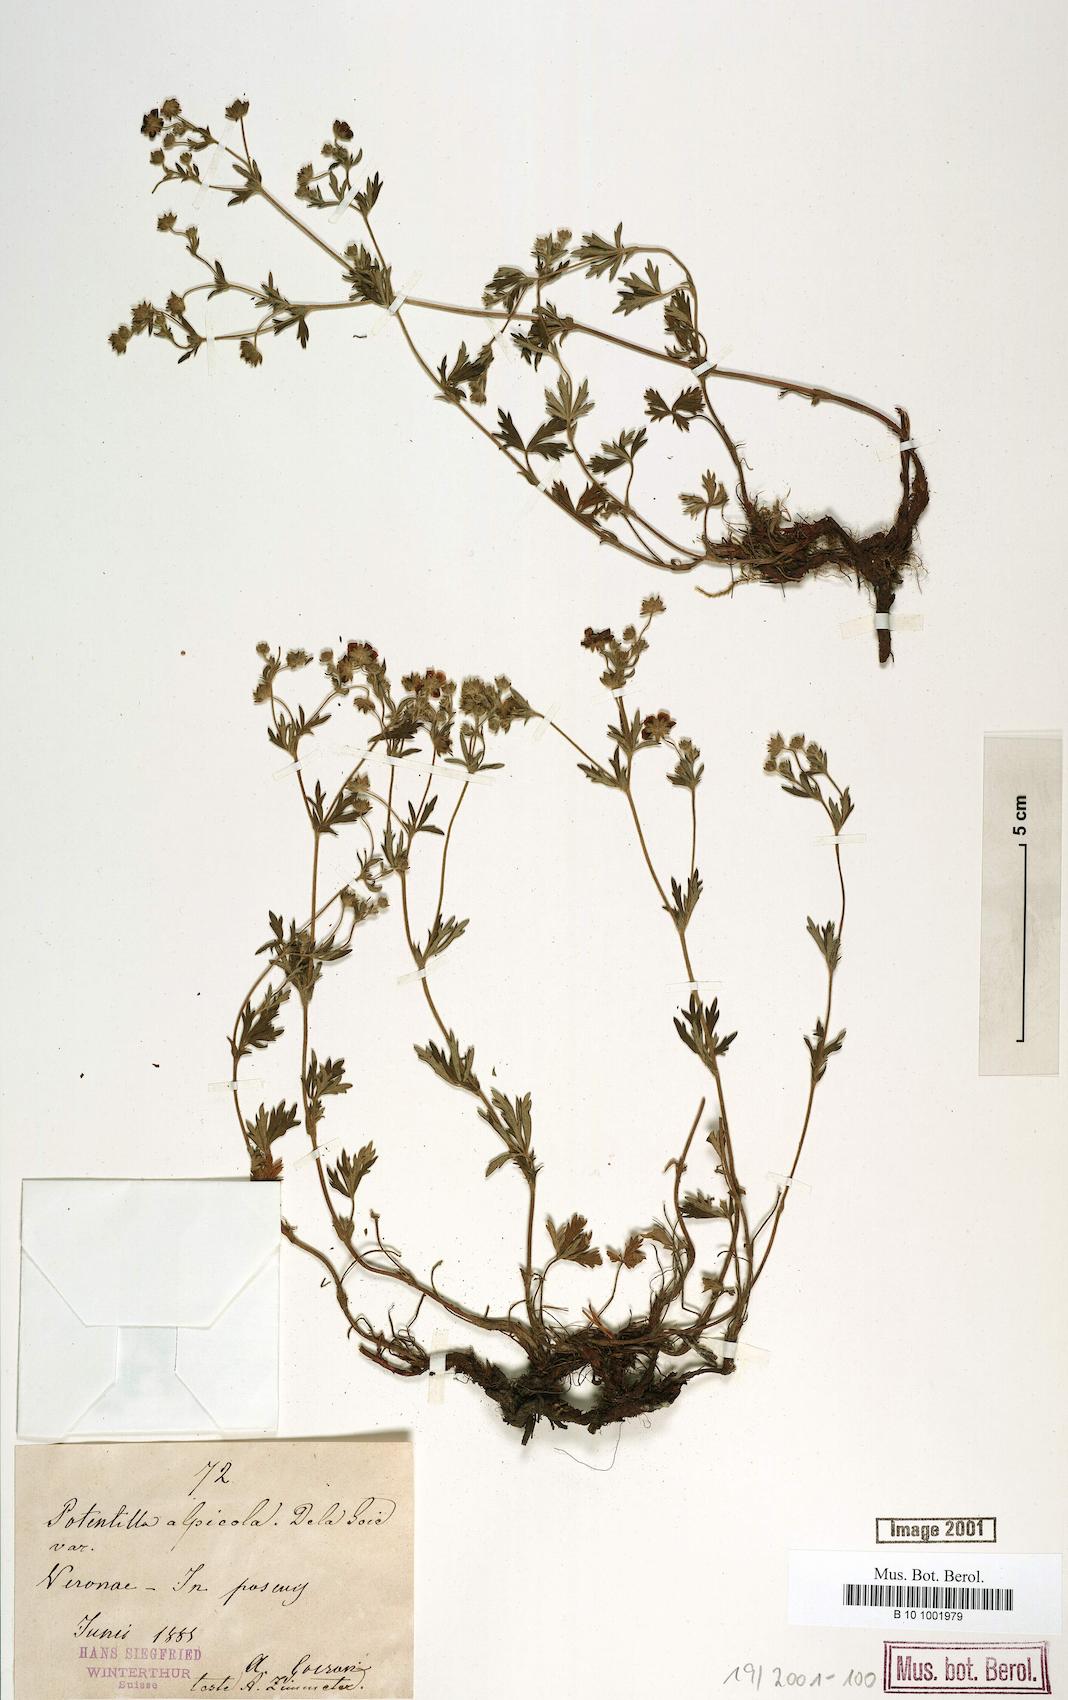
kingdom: Plantae
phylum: Tracheophyta
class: Magnoliopsida
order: Rosales
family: Rosaceae
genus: Potentilla
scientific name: Potentilla alpicola
